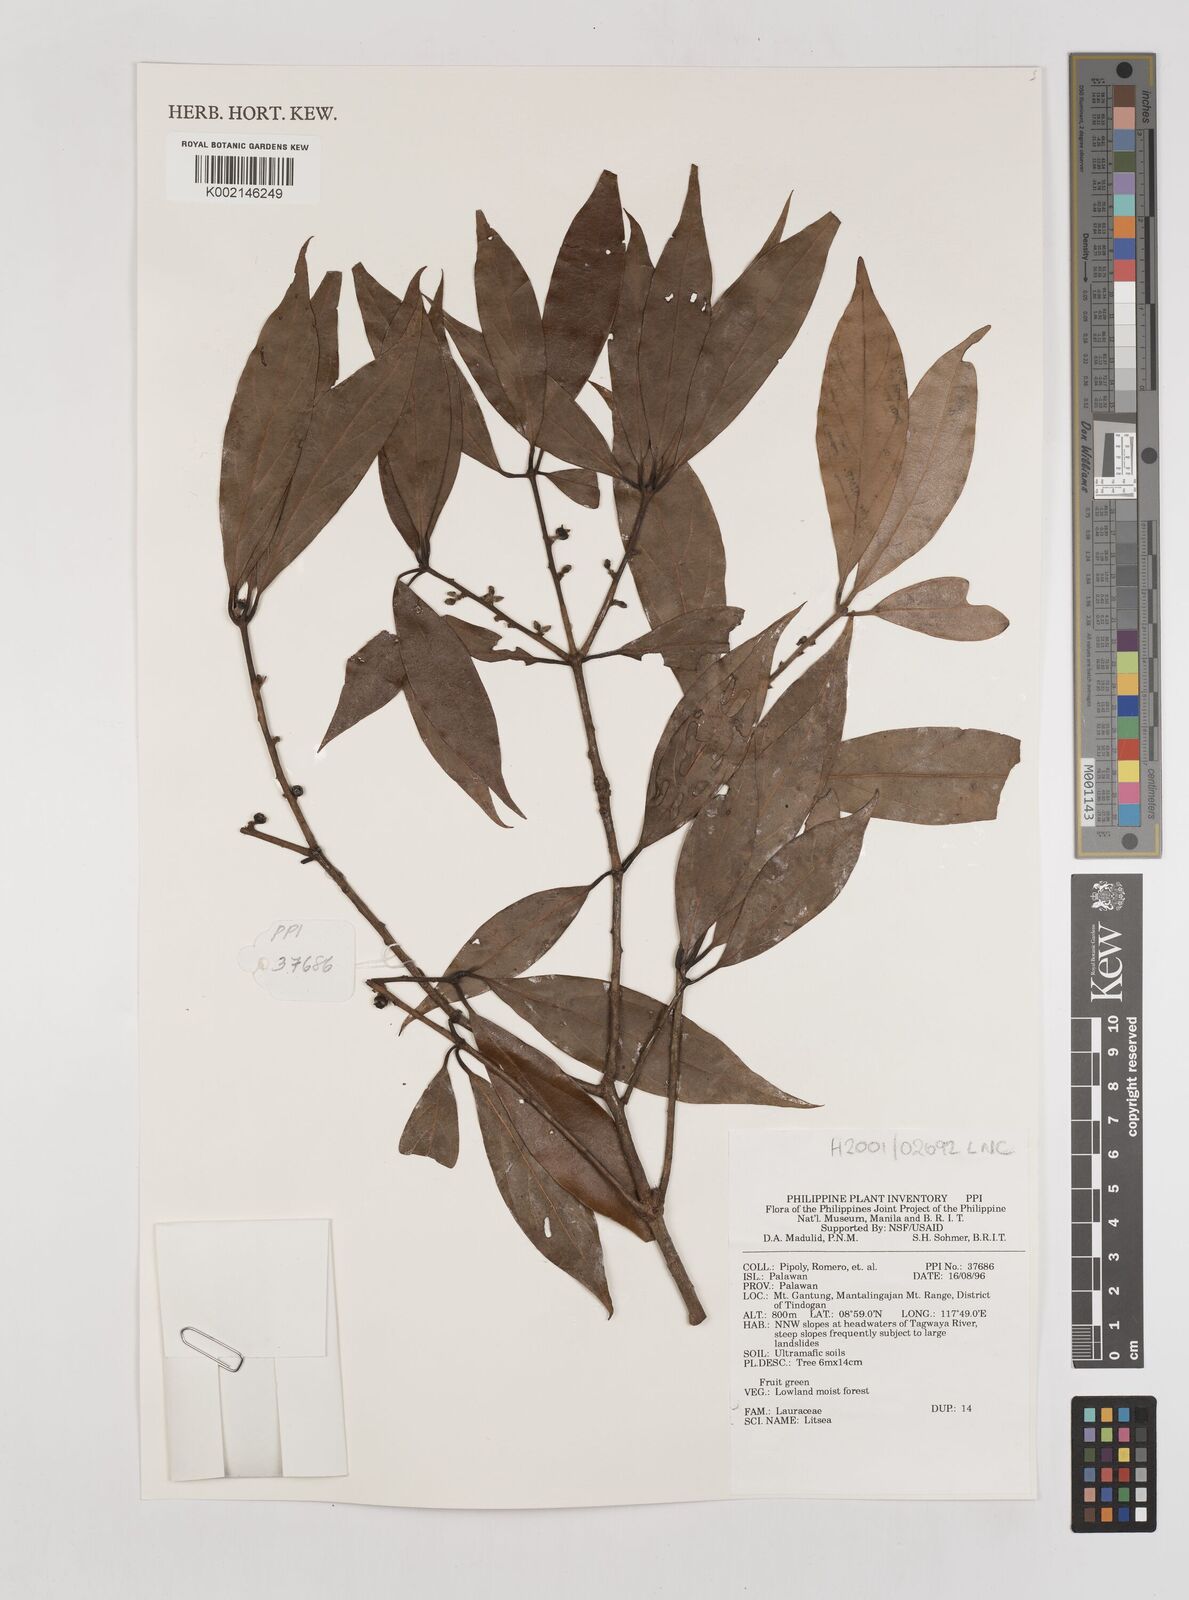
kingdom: Plantae
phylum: Tracheophyta
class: Magnoliopsida
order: Laurales
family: Lauraceae
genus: Litsea
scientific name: Litsea
